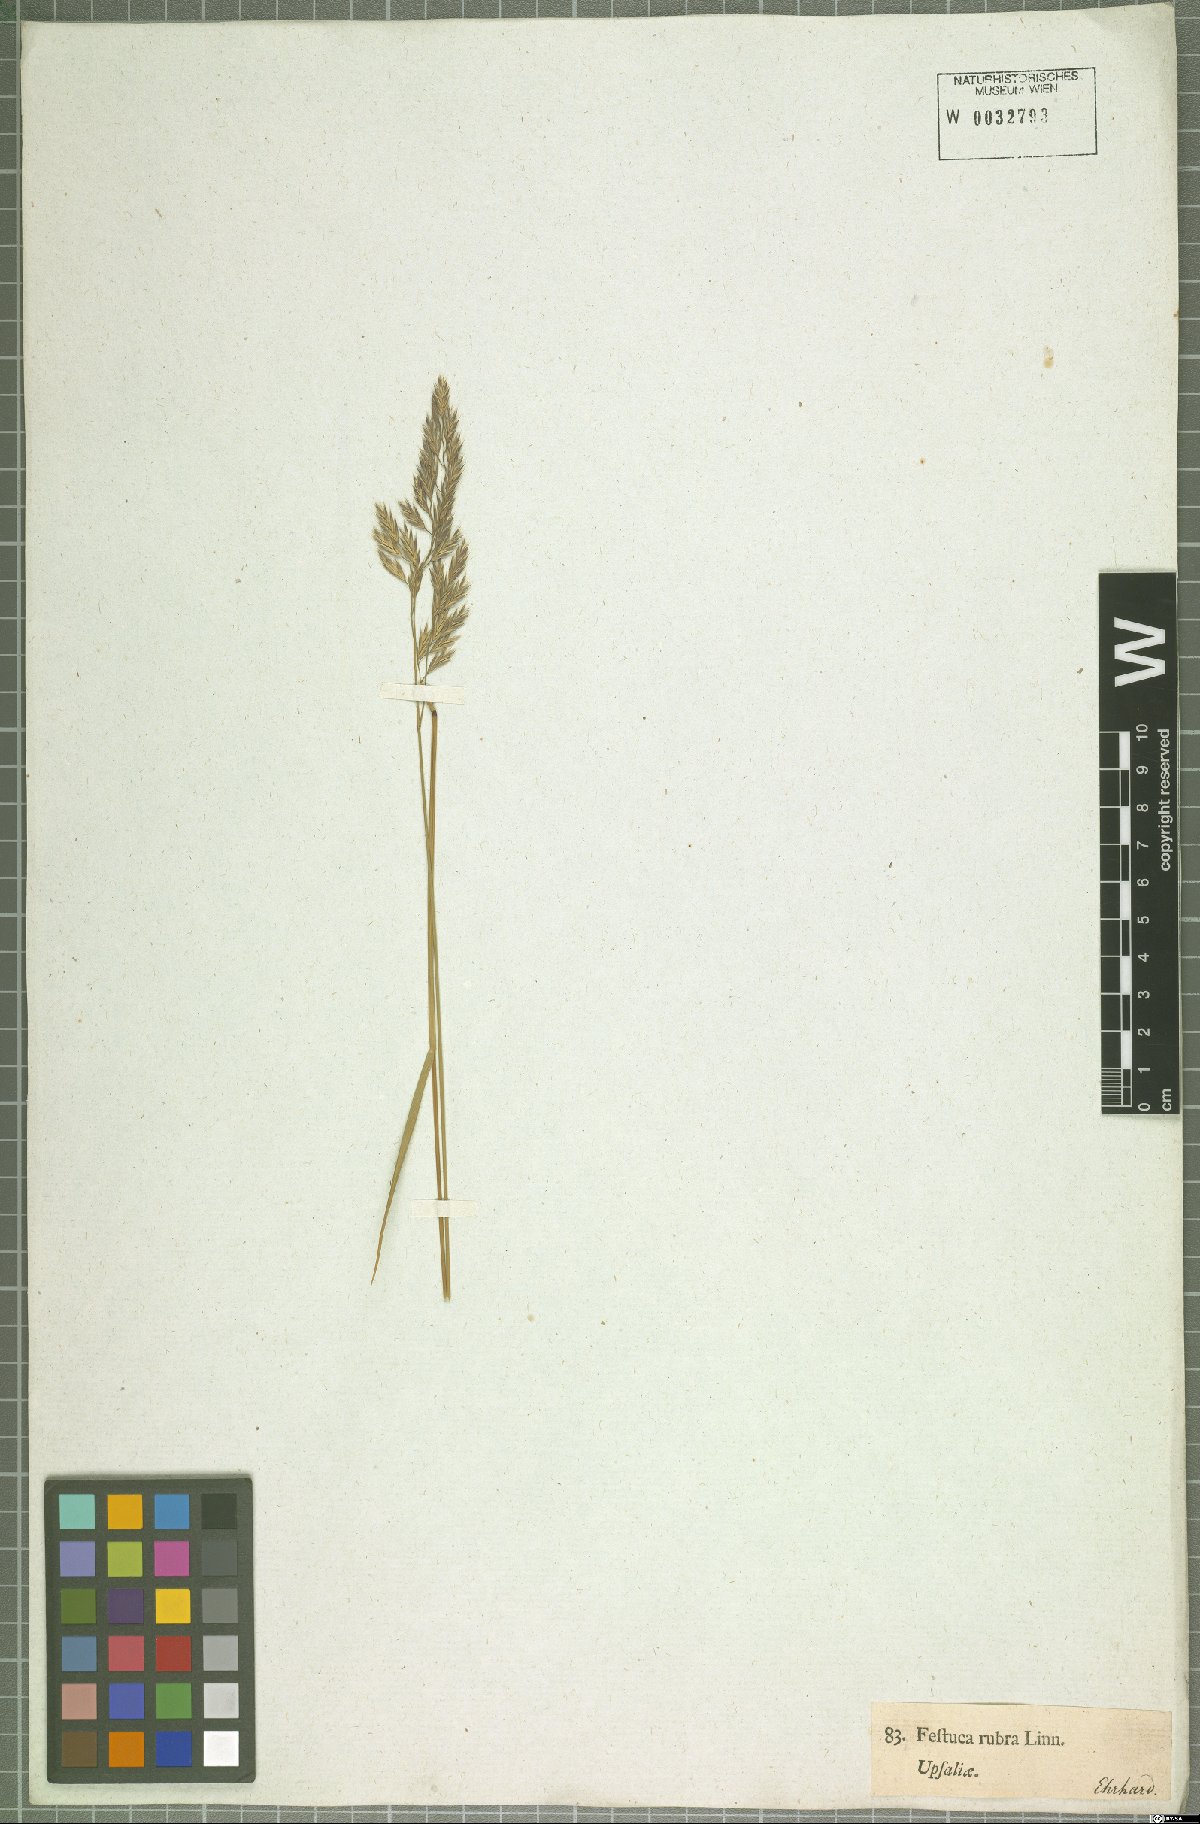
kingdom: Plantae
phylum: Tracheophyta
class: Liliopsida
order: Poales
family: Poaceae
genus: Festuca
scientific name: Festuca rubra
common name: Red fescue
